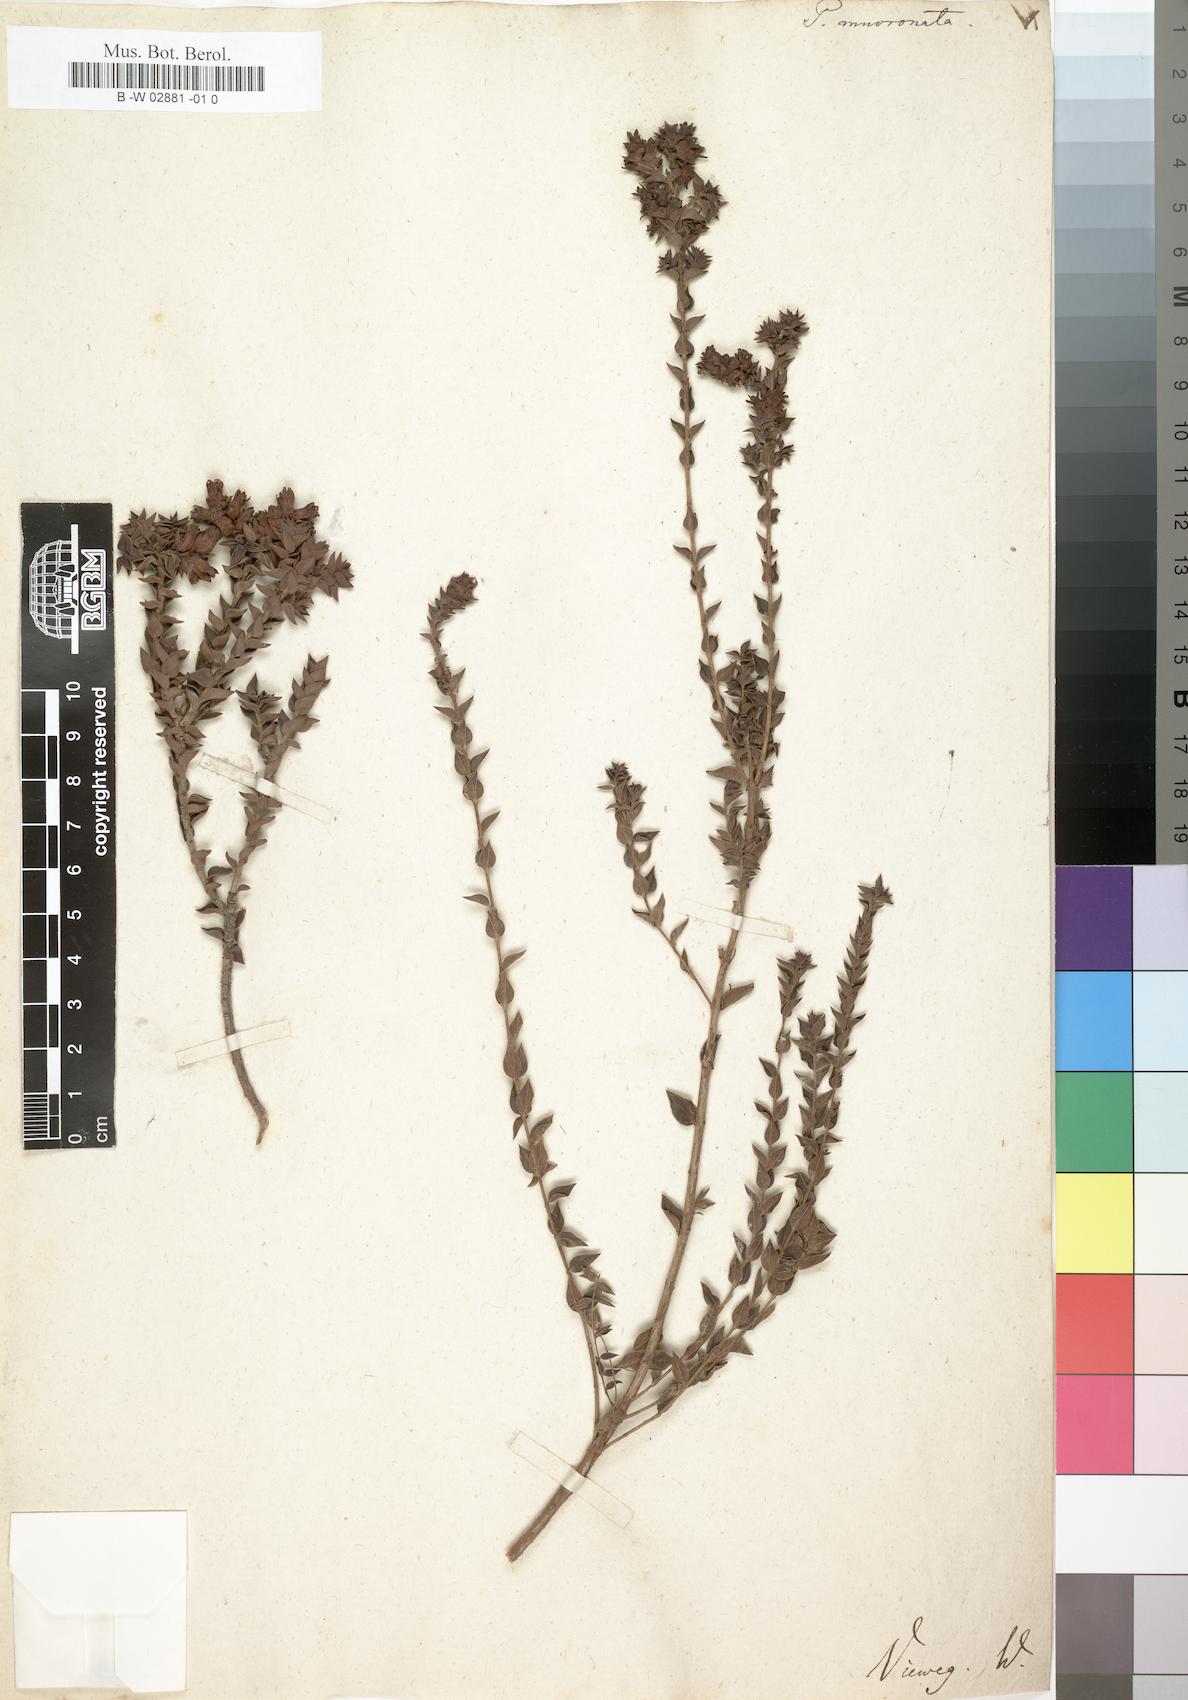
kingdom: Plantae
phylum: Tracheophyta
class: Magnoliopsida
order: Myrtales
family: Penaeaceae
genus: Penaea
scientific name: Penaea mucronata
